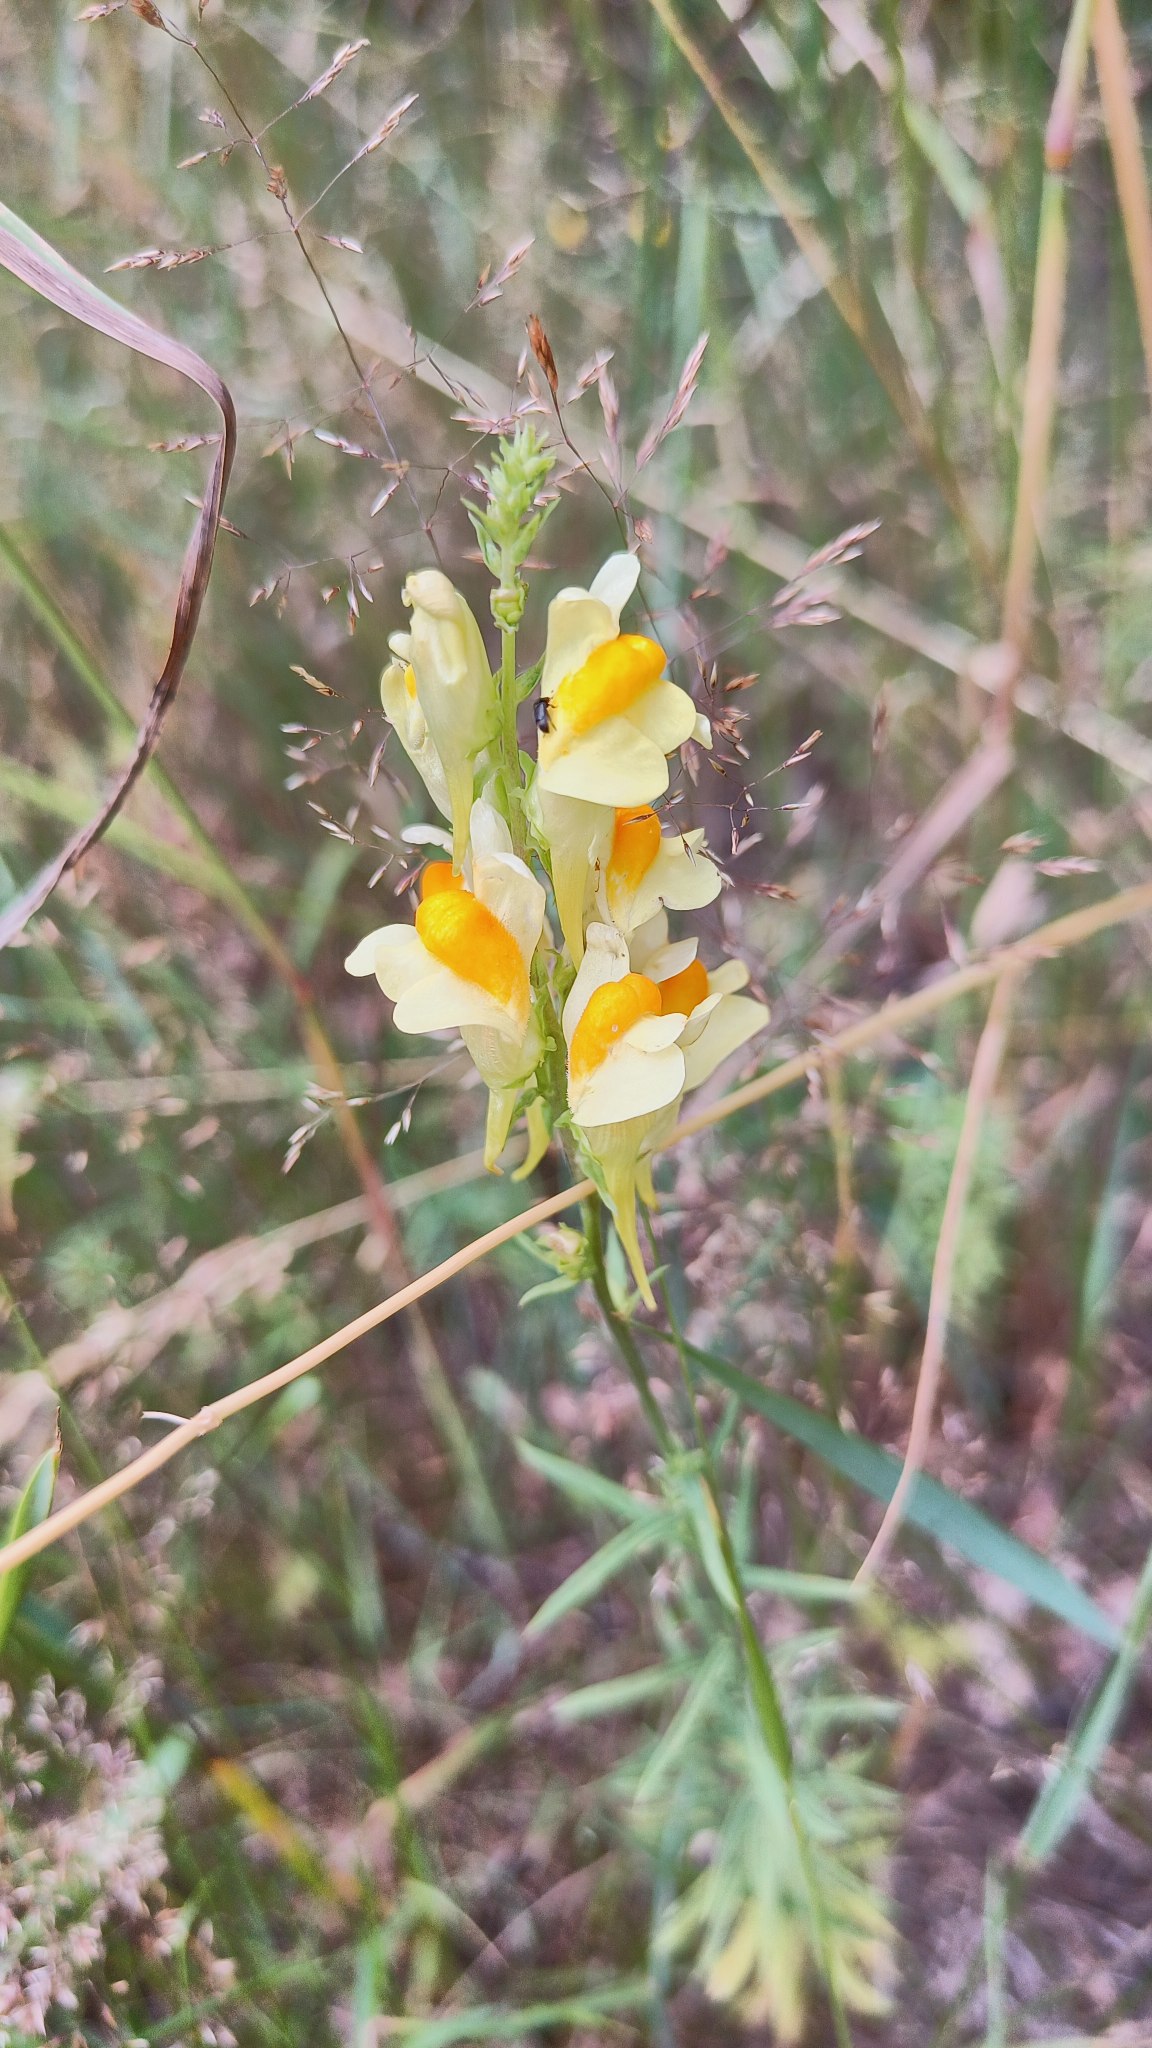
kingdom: Plantae
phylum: Tracheophyta
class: Magnoliopsida
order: Lamiales
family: Plantaginaceae
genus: Linaria
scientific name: Linaria vulgaris
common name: Almindelig torskemund
